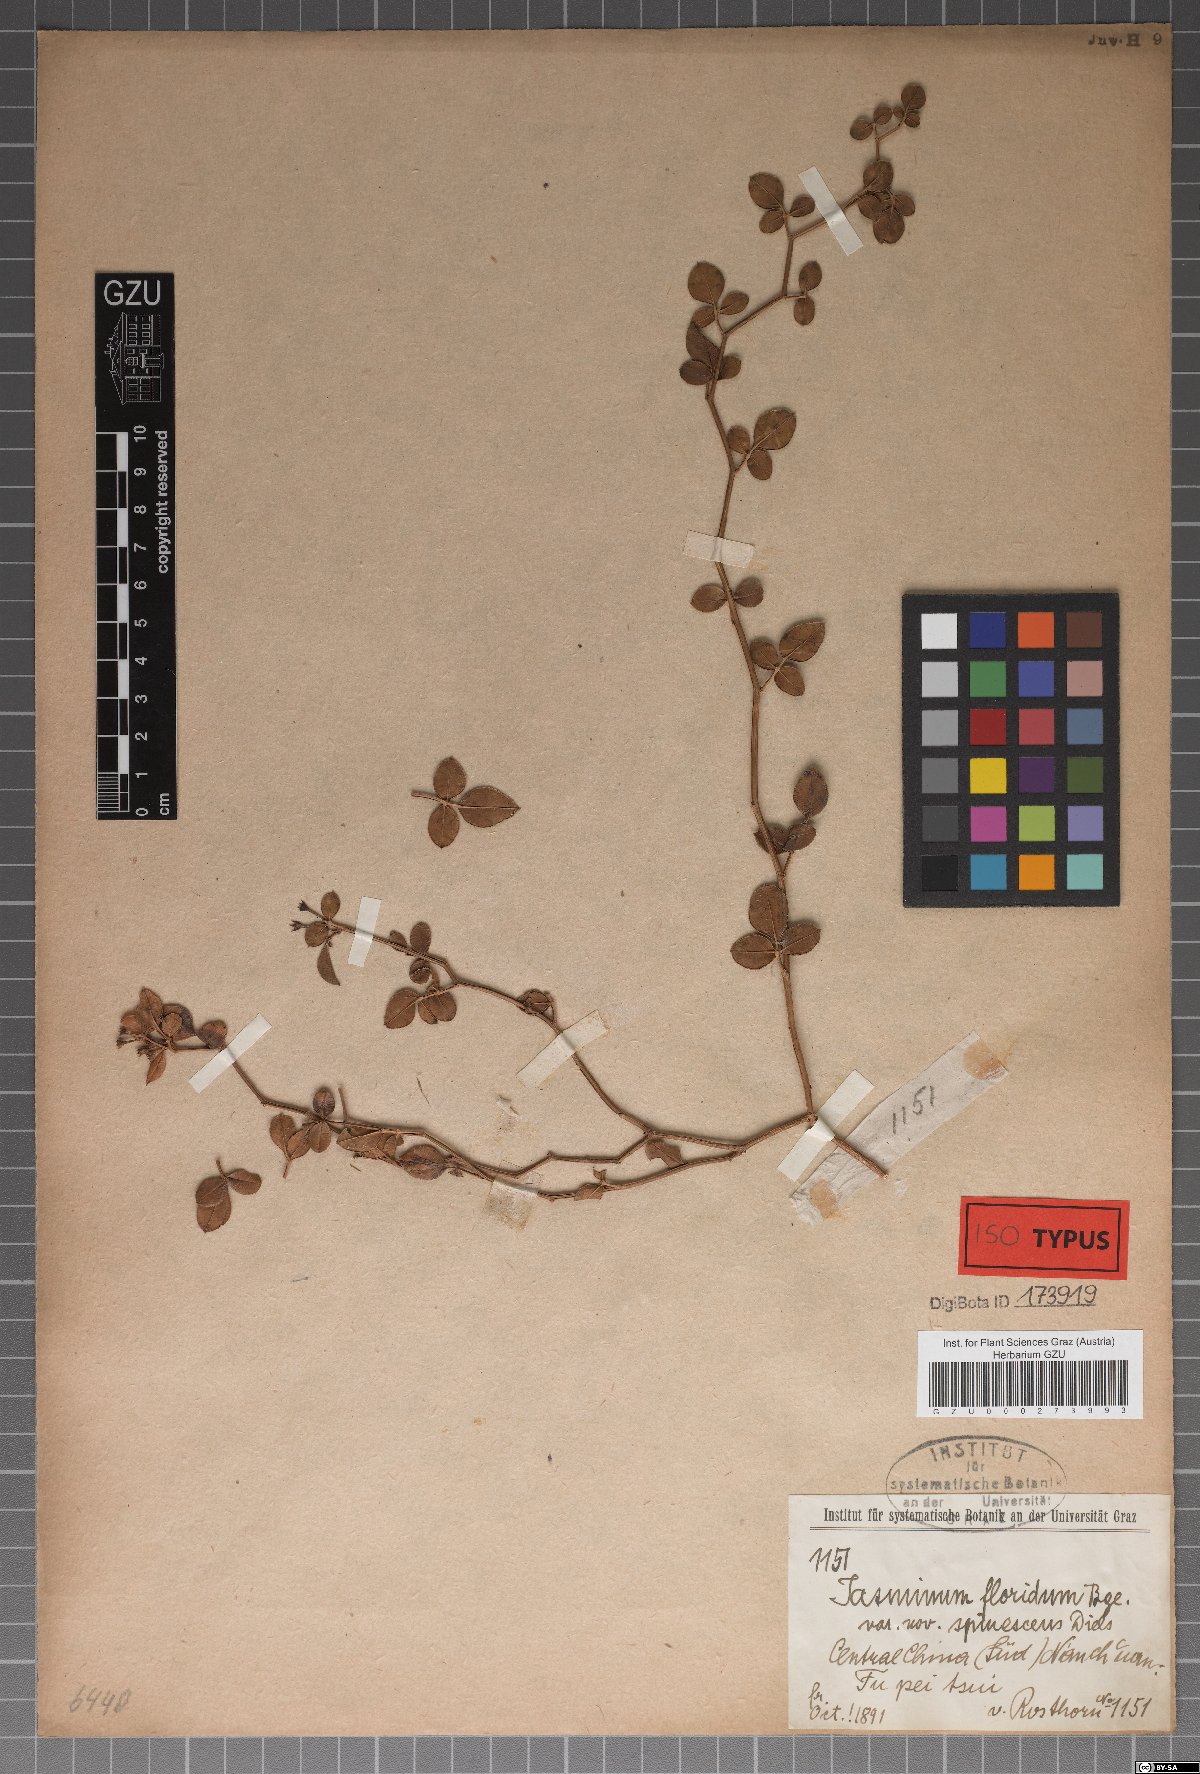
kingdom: Plantae
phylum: Tracheophyta
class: Magnoliopsida
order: Lamiales
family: Oleaceae
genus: Chrysojasminum
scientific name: Chrysojasminum floridum
